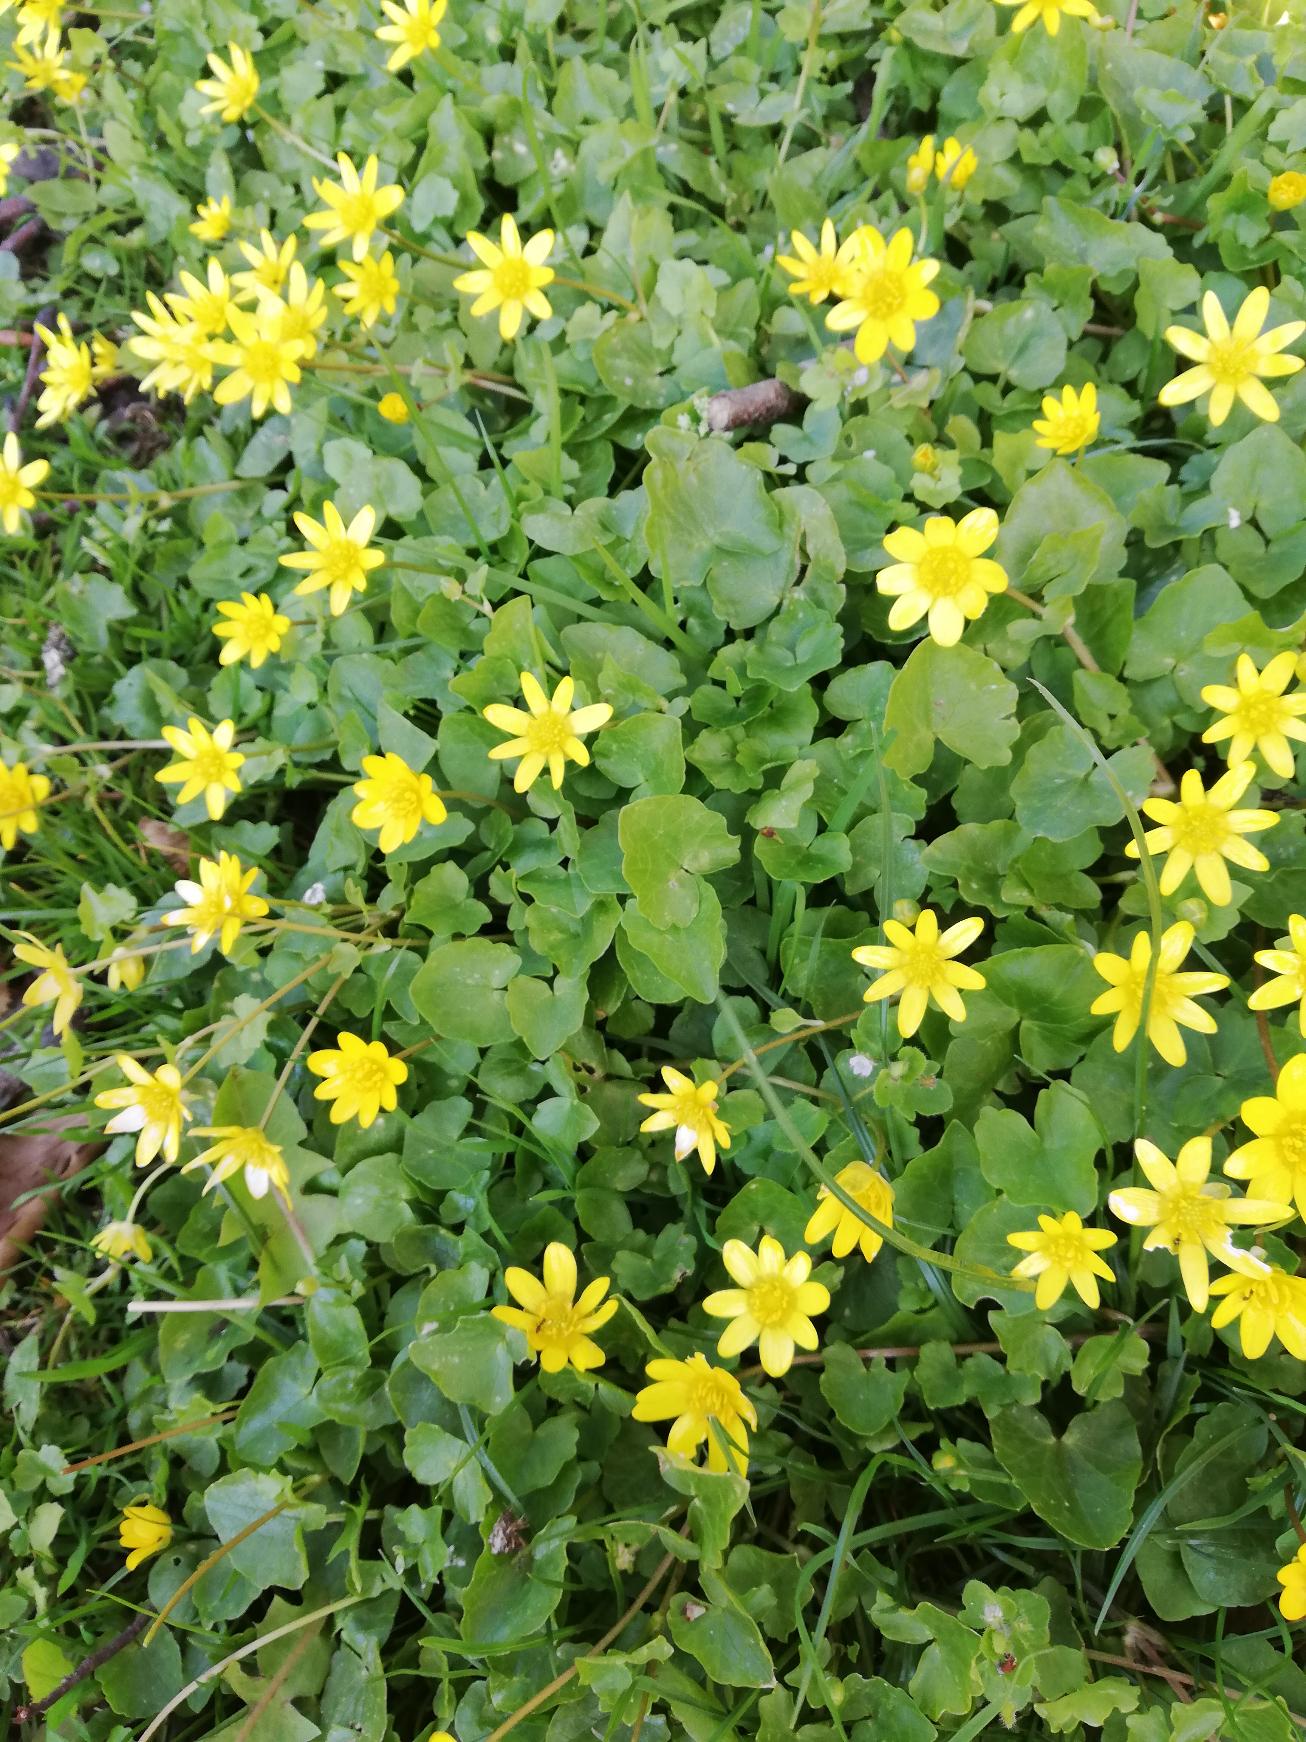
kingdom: Plantae
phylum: Tracheophyta
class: Magnoliopsida
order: Ranunculales
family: Ranunculaceae
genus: Ficaria
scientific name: Ficaria verna
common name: Vorterod
